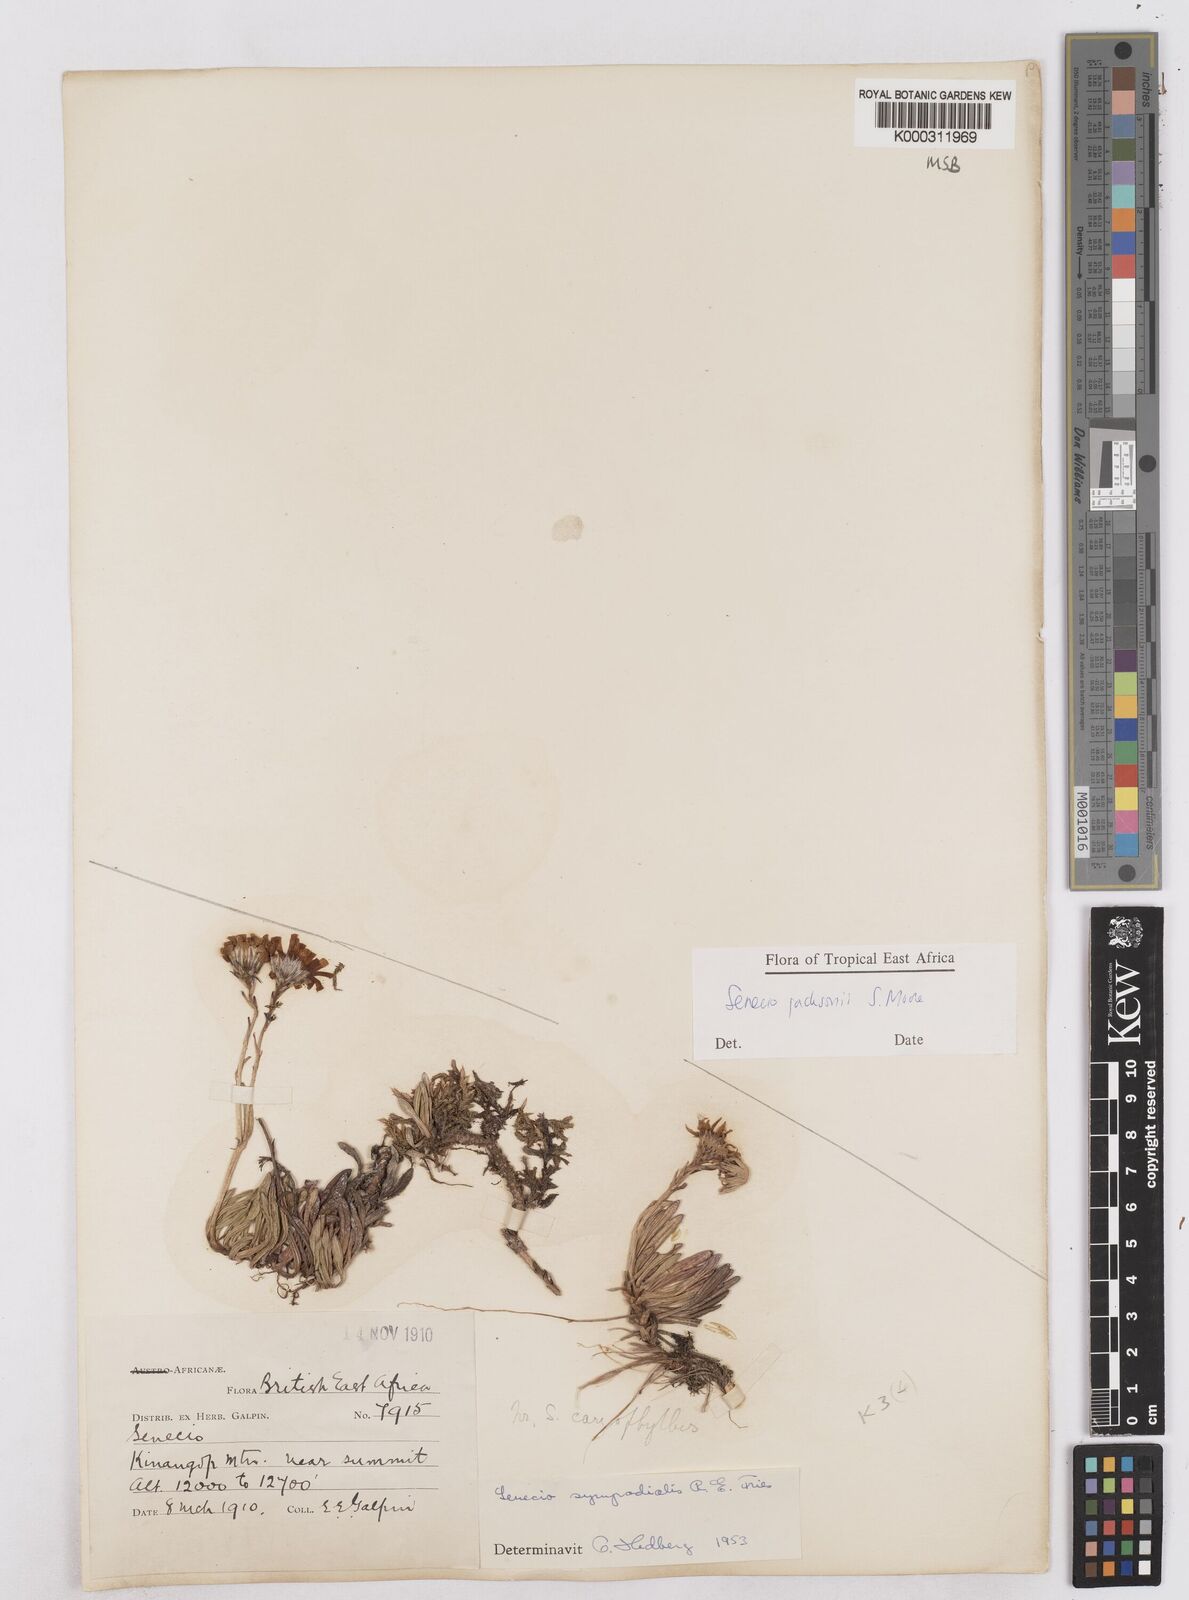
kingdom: Plantae
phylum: Tracheophyta
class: Magnoliopsida
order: Asterales
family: Asteraceae
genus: Senecio
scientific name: Senecio jacksonii
